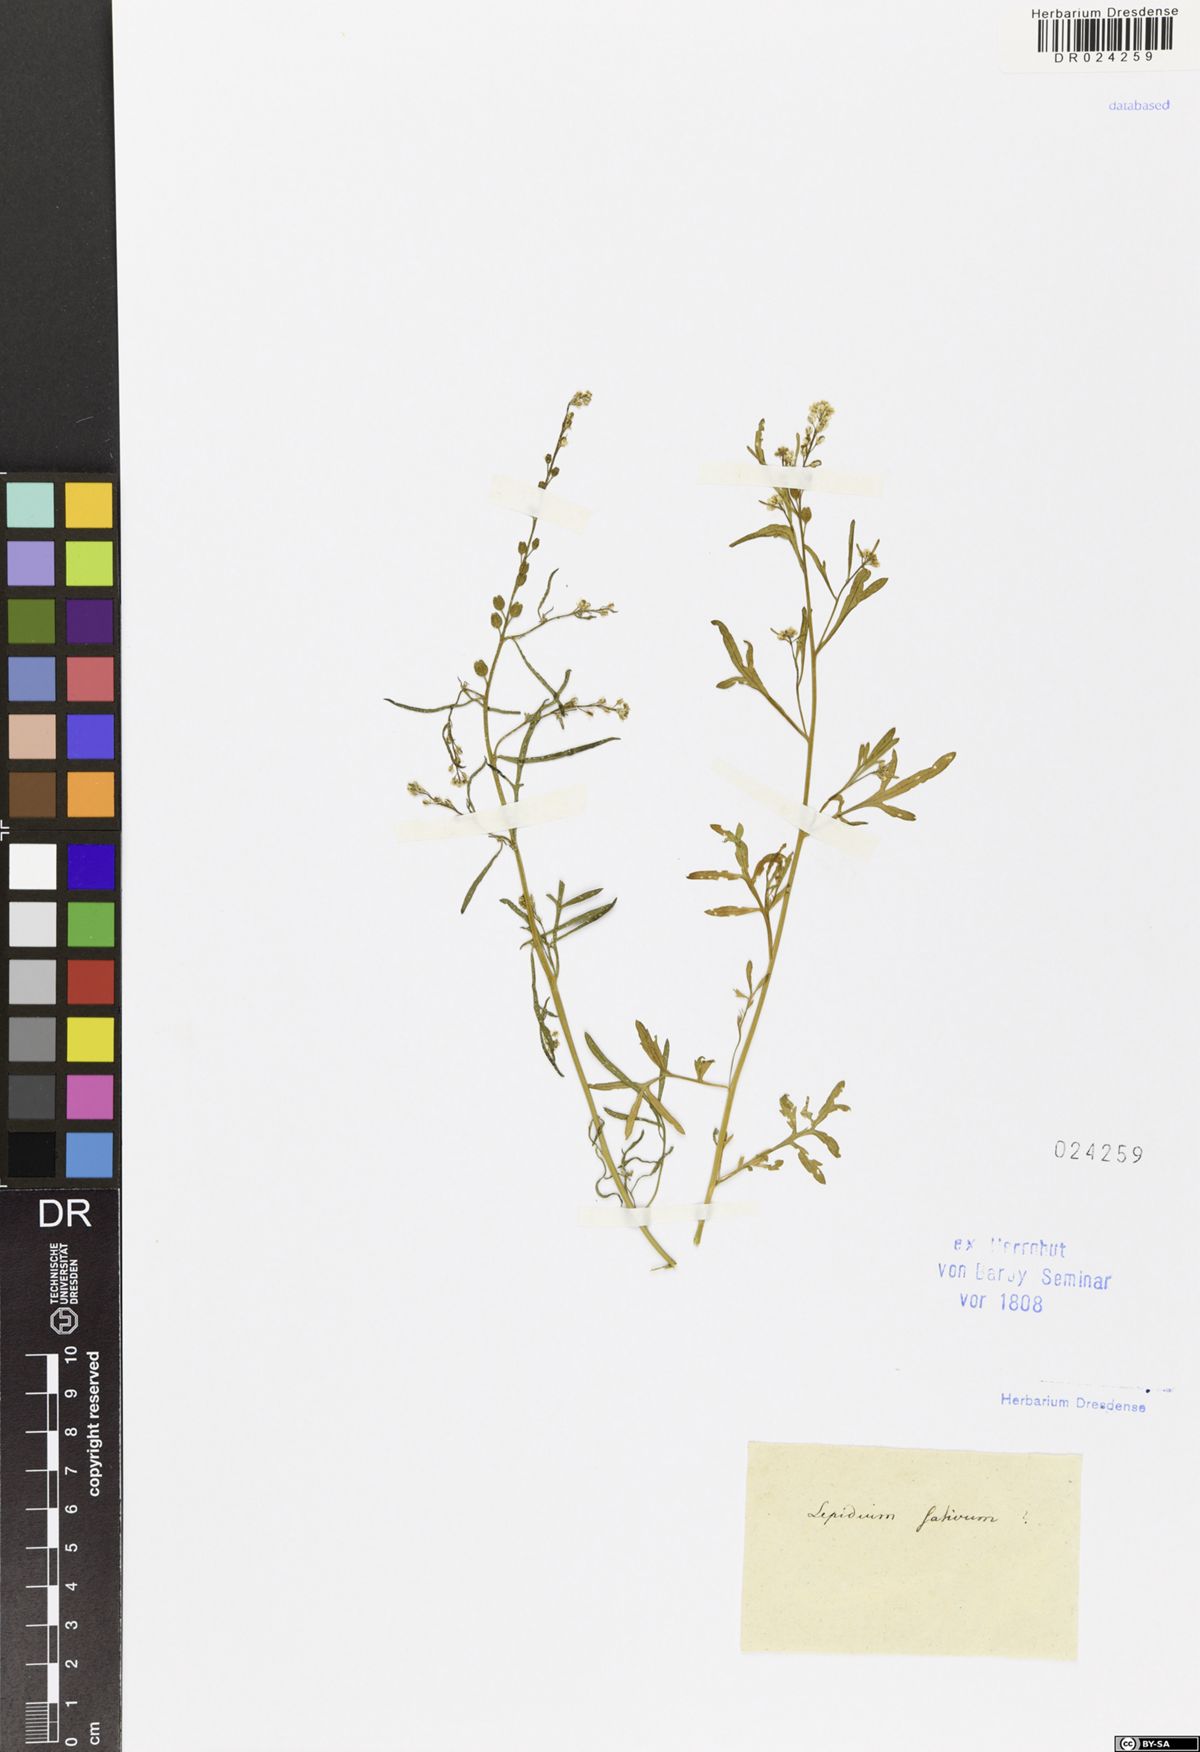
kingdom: Plantae
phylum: Tracheophyta
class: Magnoliopsida
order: Brassicales
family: Brassicaceae
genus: Lepidium
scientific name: Lepidium sativum
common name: Garden cress
